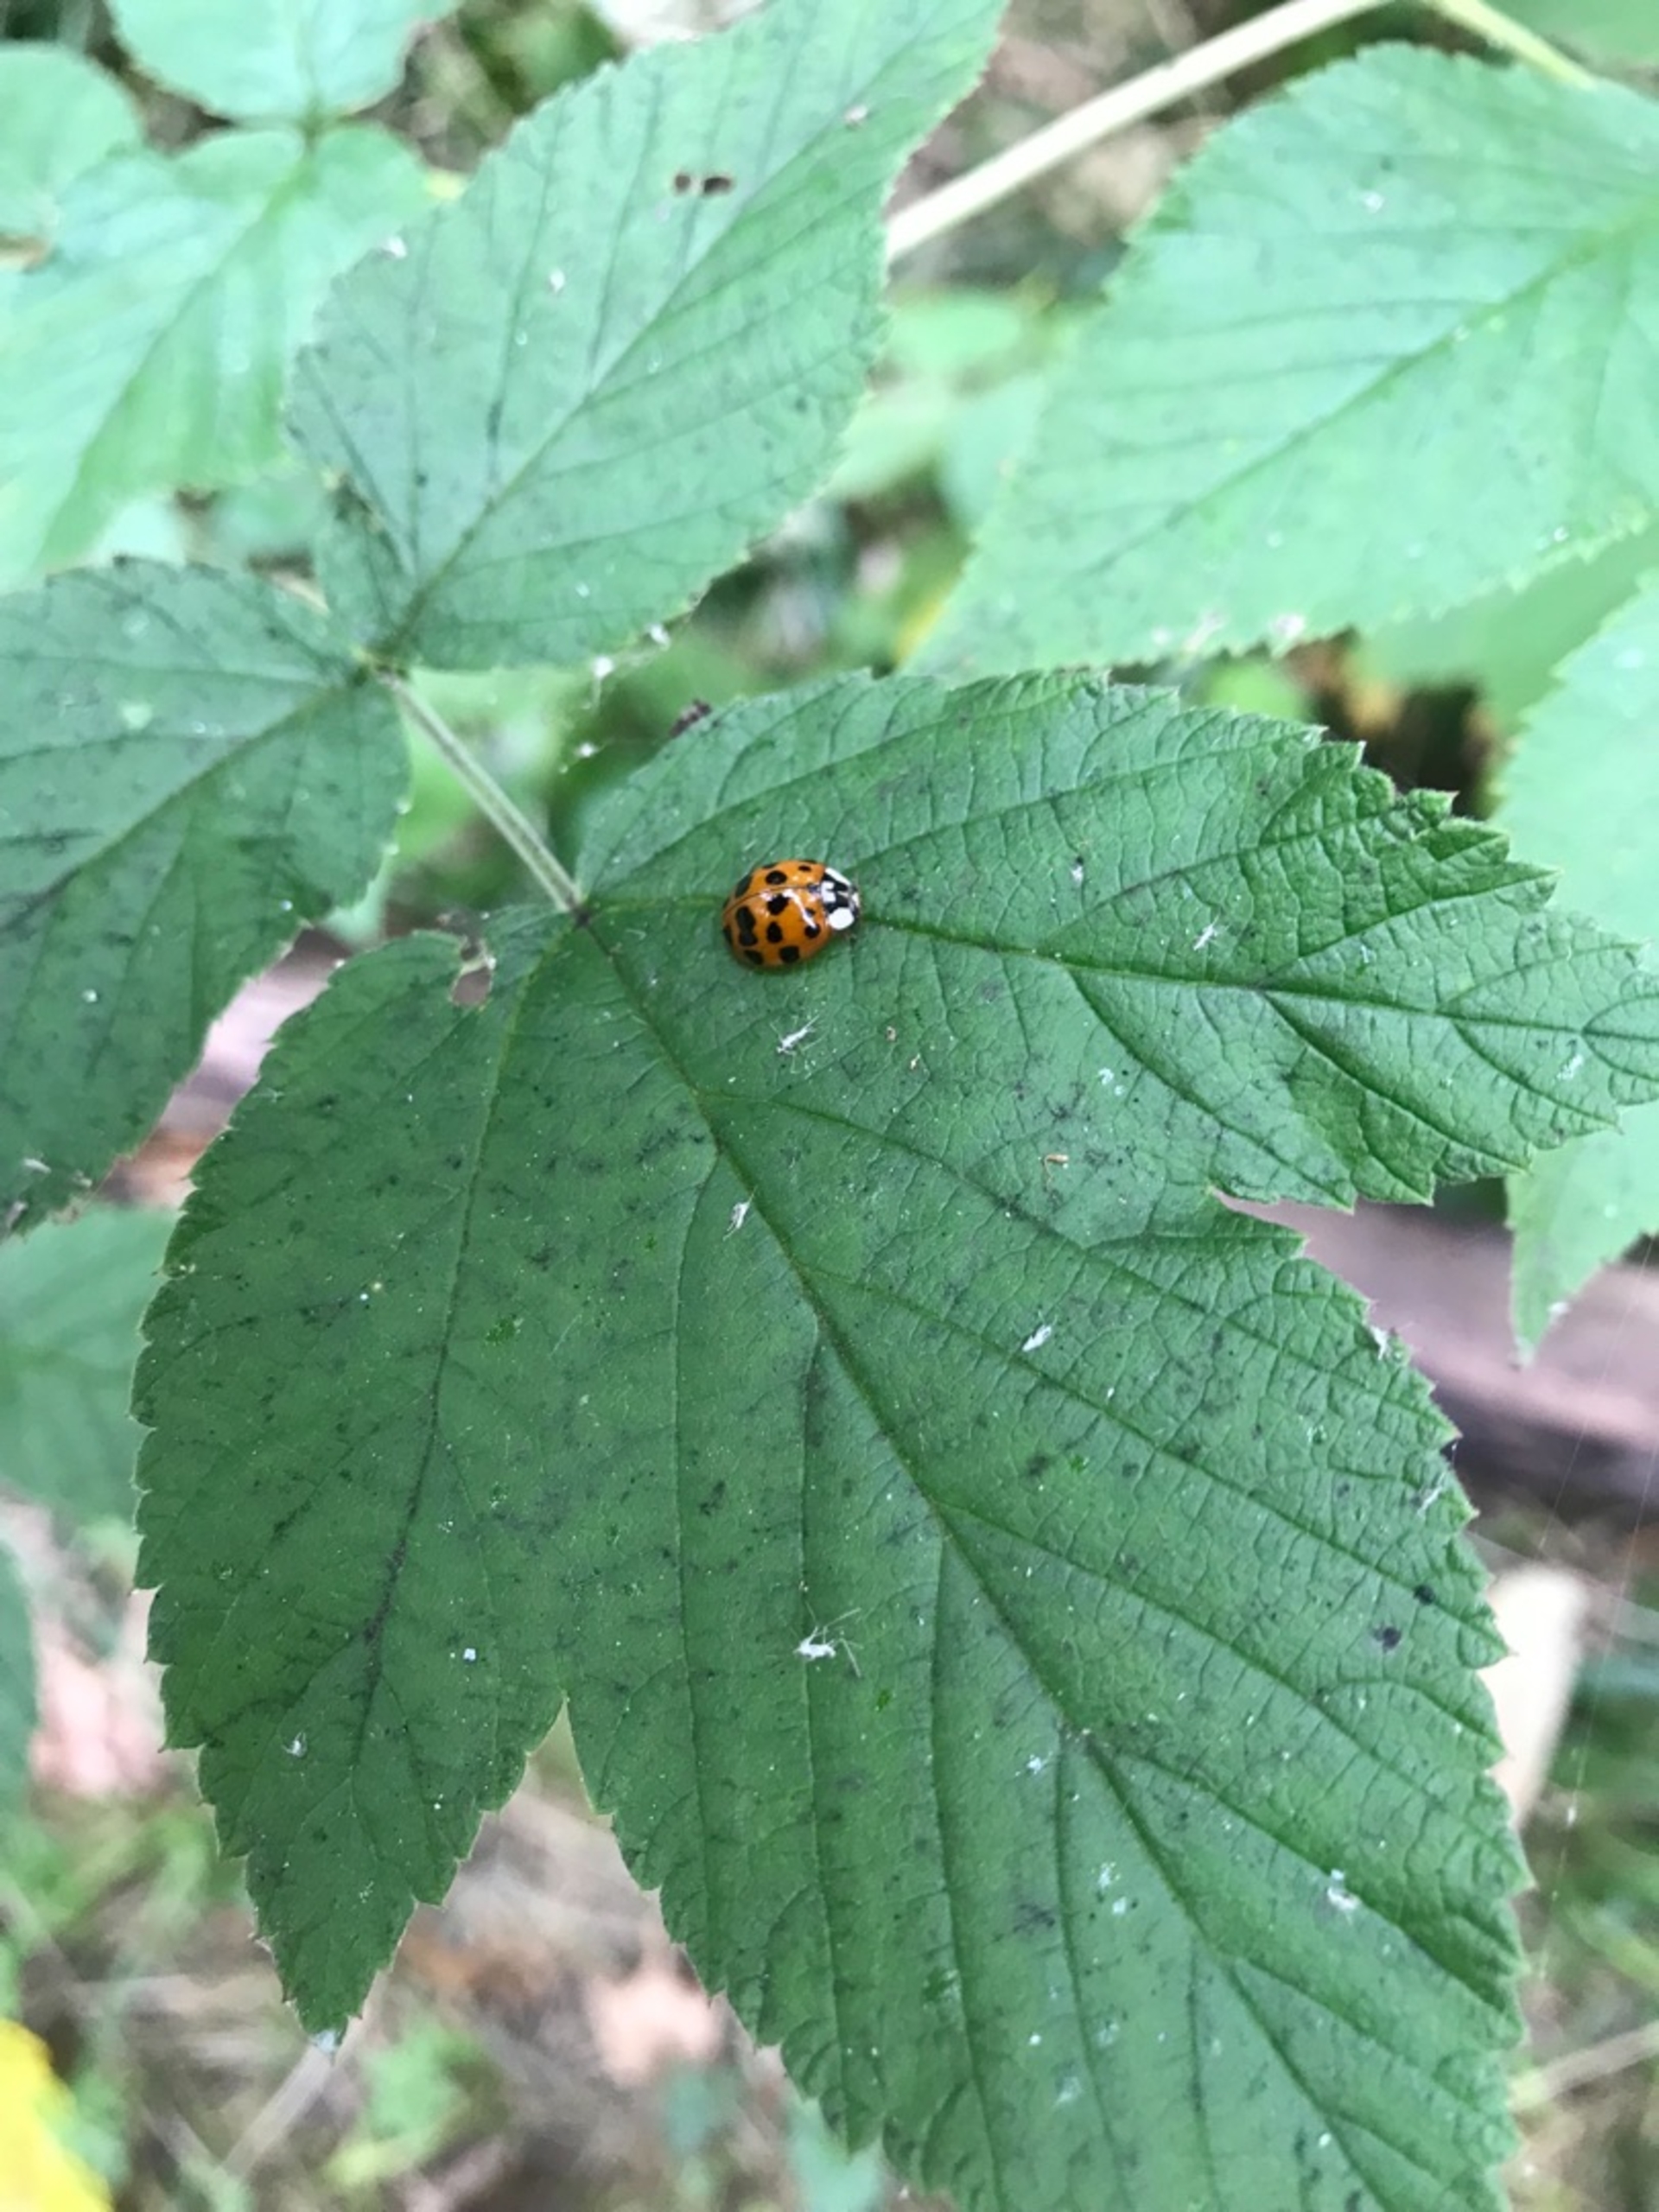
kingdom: Animalia
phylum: Arthropoda
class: Insecta
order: Coleoptera
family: Coccinellidae
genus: Harmonia
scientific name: Harmonia axyridis
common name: Harlekinmariehøne
